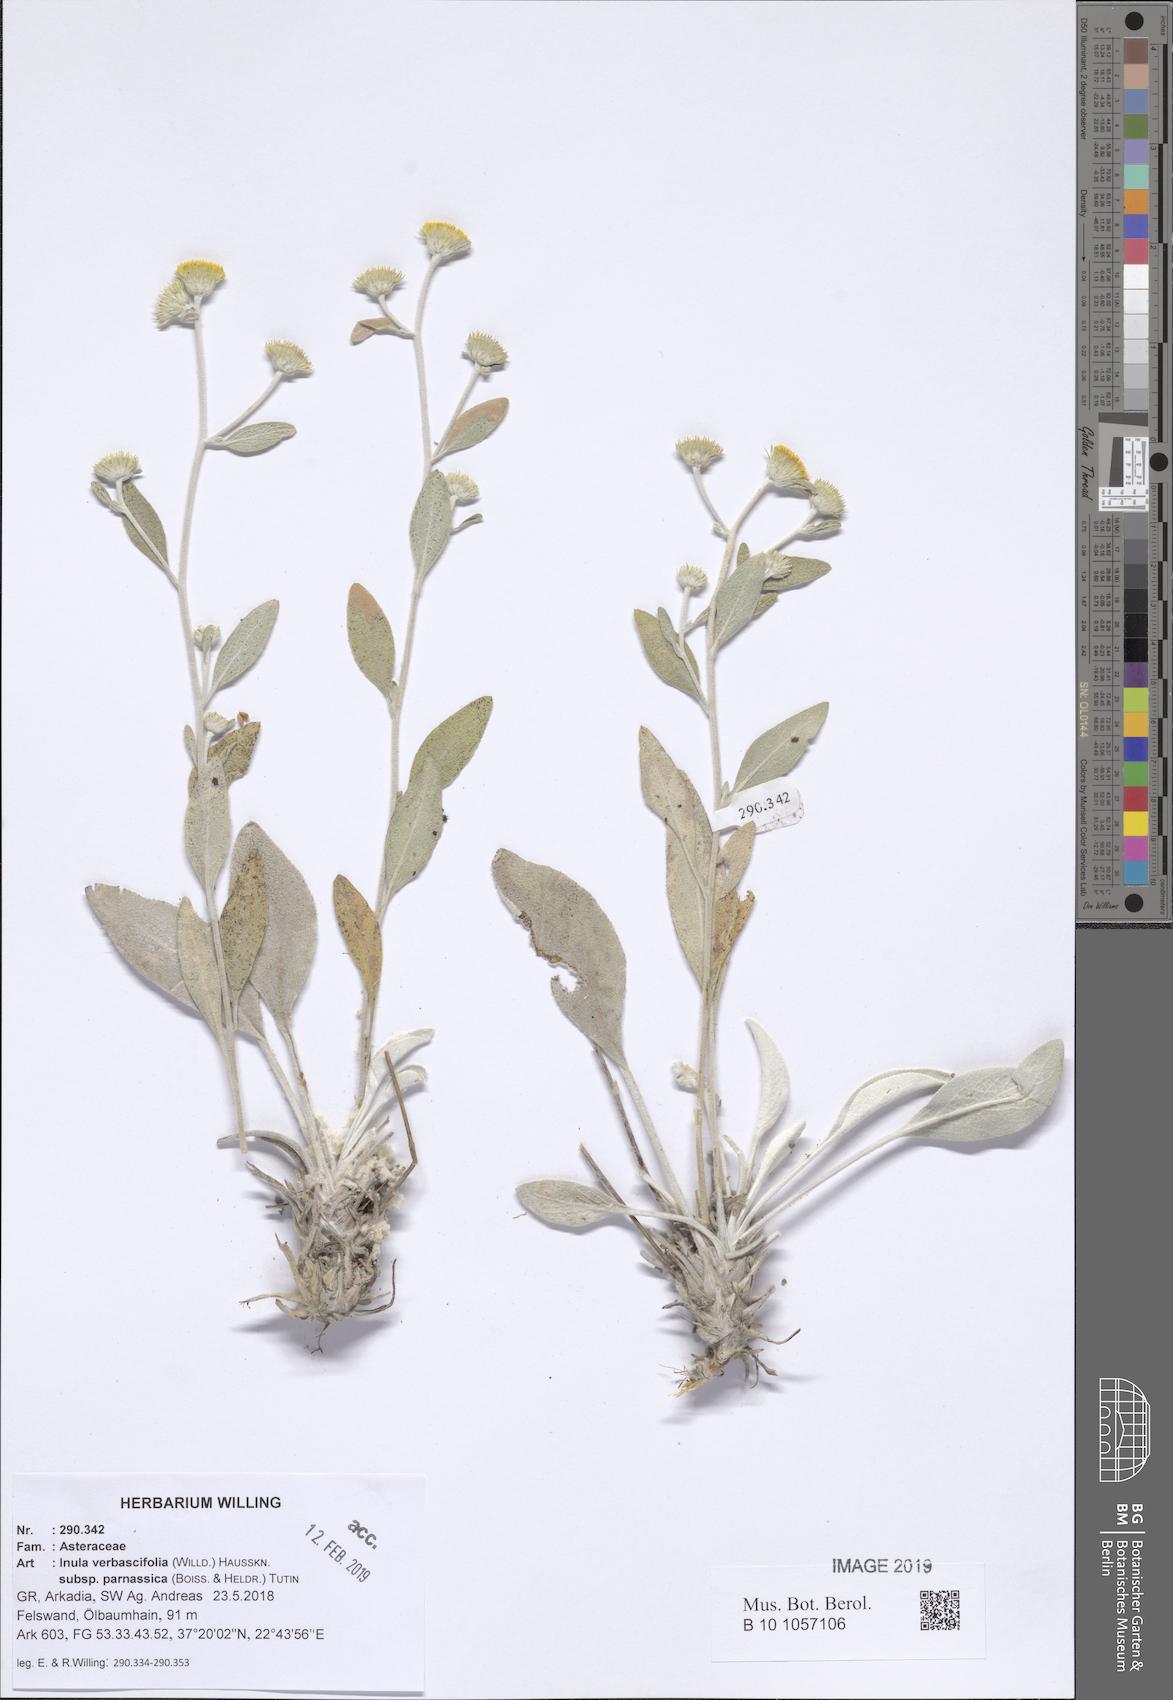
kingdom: Plantae
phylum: Tracheophyta
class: Magnoliopsida
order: Asterales
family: Asteraceae
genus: Pentanema
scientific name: Pentanema verbascifolium
